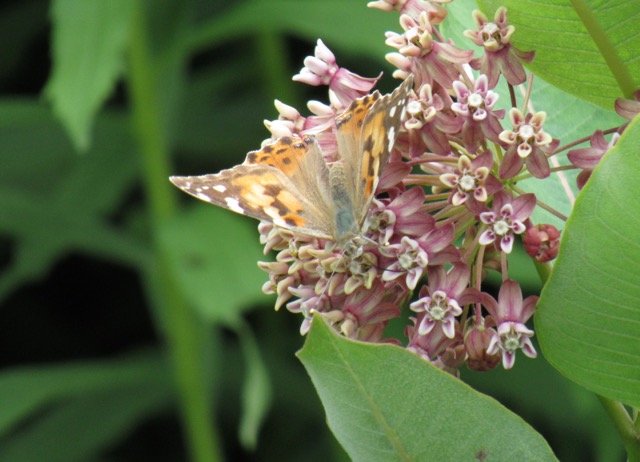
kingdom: Animalia
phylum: Arthropoda
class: Insecta
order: Lepidoptera
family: Nymphalidae
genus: Vanessa
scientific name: Vanessa cardui
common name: Painted Lady
